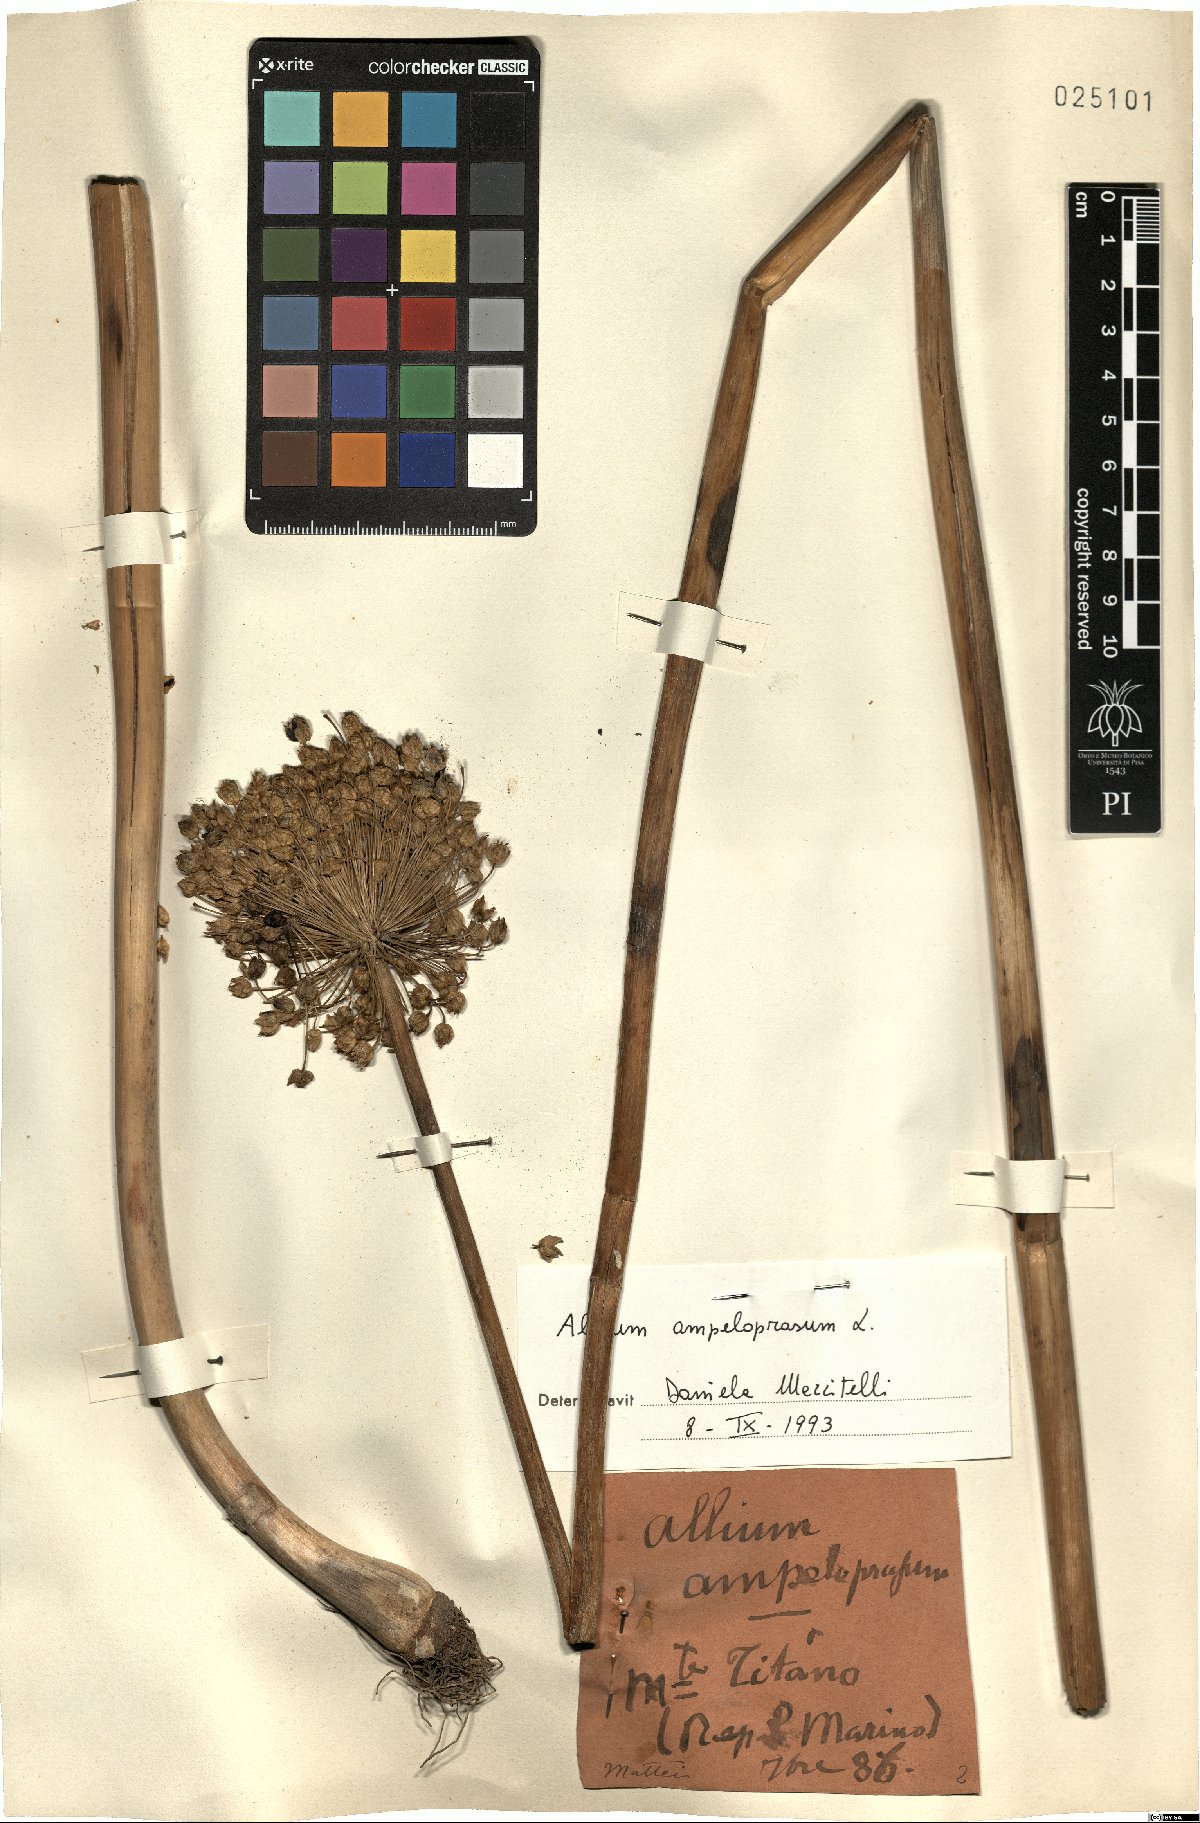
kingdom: Plantae
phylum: Tracheophyta
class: Liliopsida
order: Asparagales
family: Amaryllidaceae
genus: Allium
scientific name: Allium ampeloprasum
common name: Wild leek
